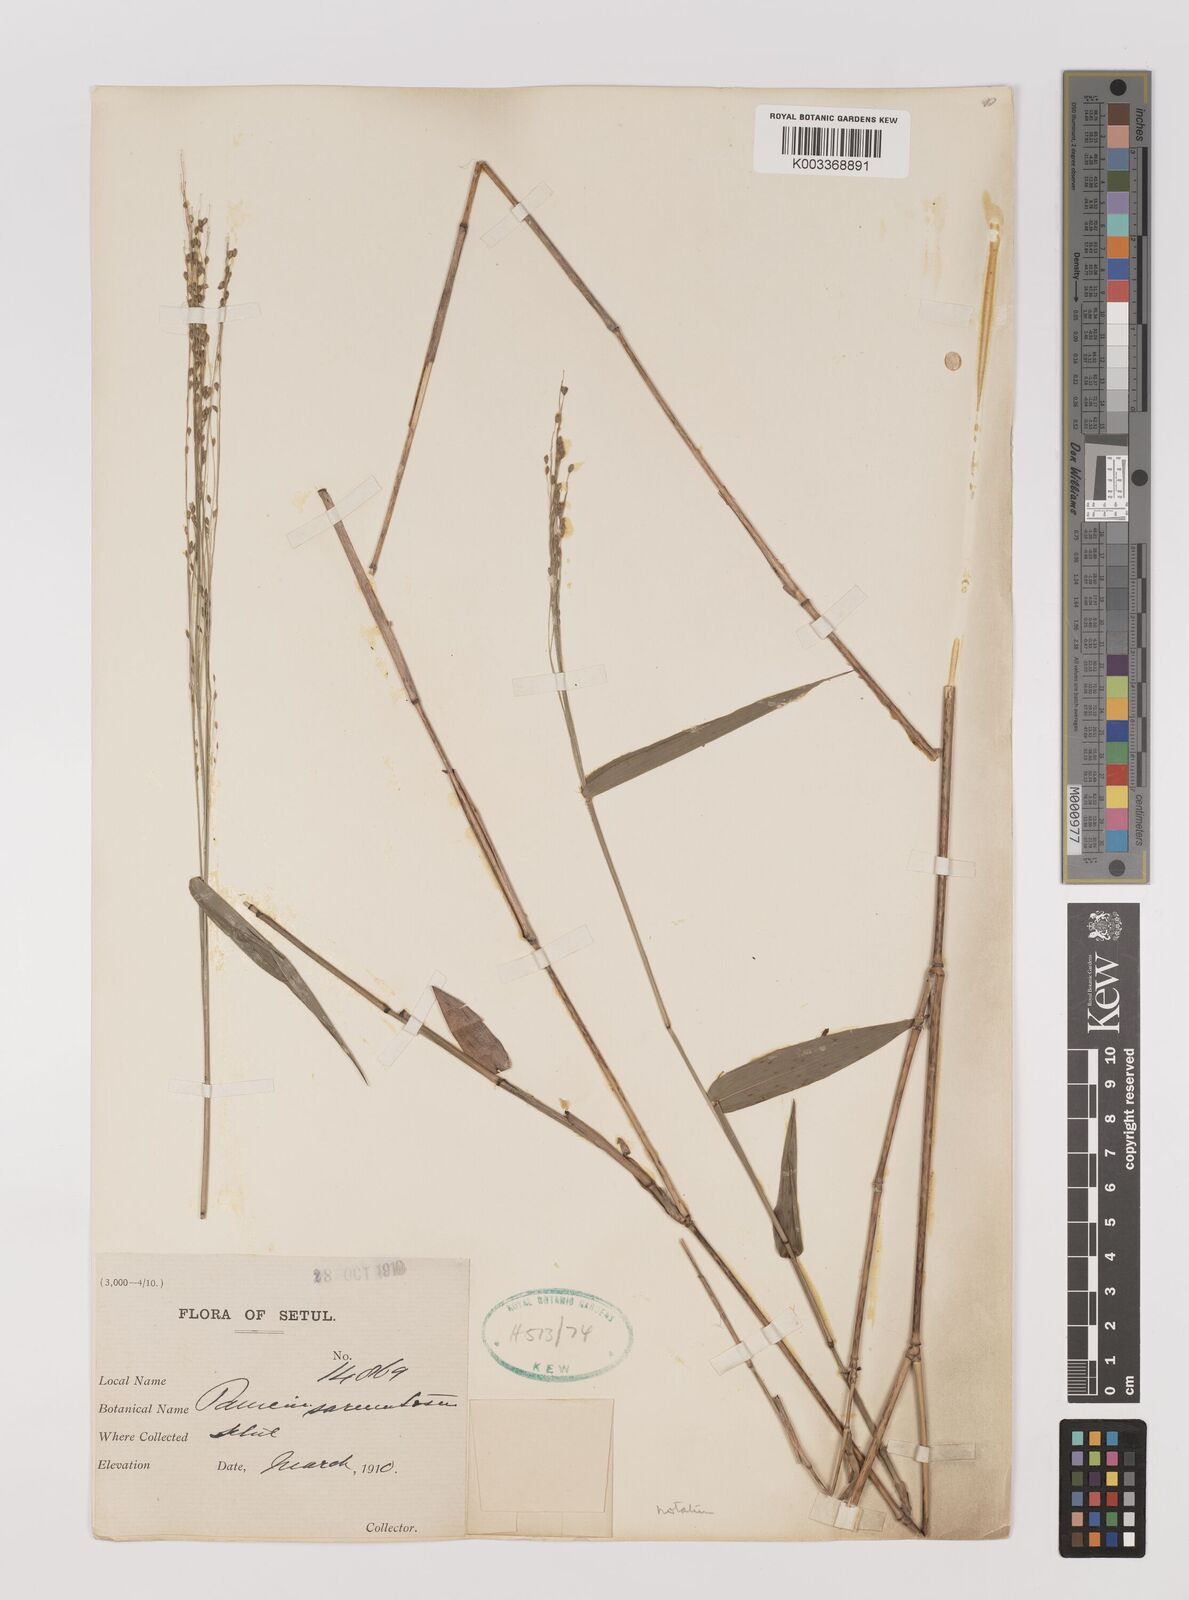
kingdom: Plantae
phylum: Tracheophyta
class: Liliopsida
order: Poales
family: Poaceae
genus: Panicum
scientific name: Panicum sarmentosum
